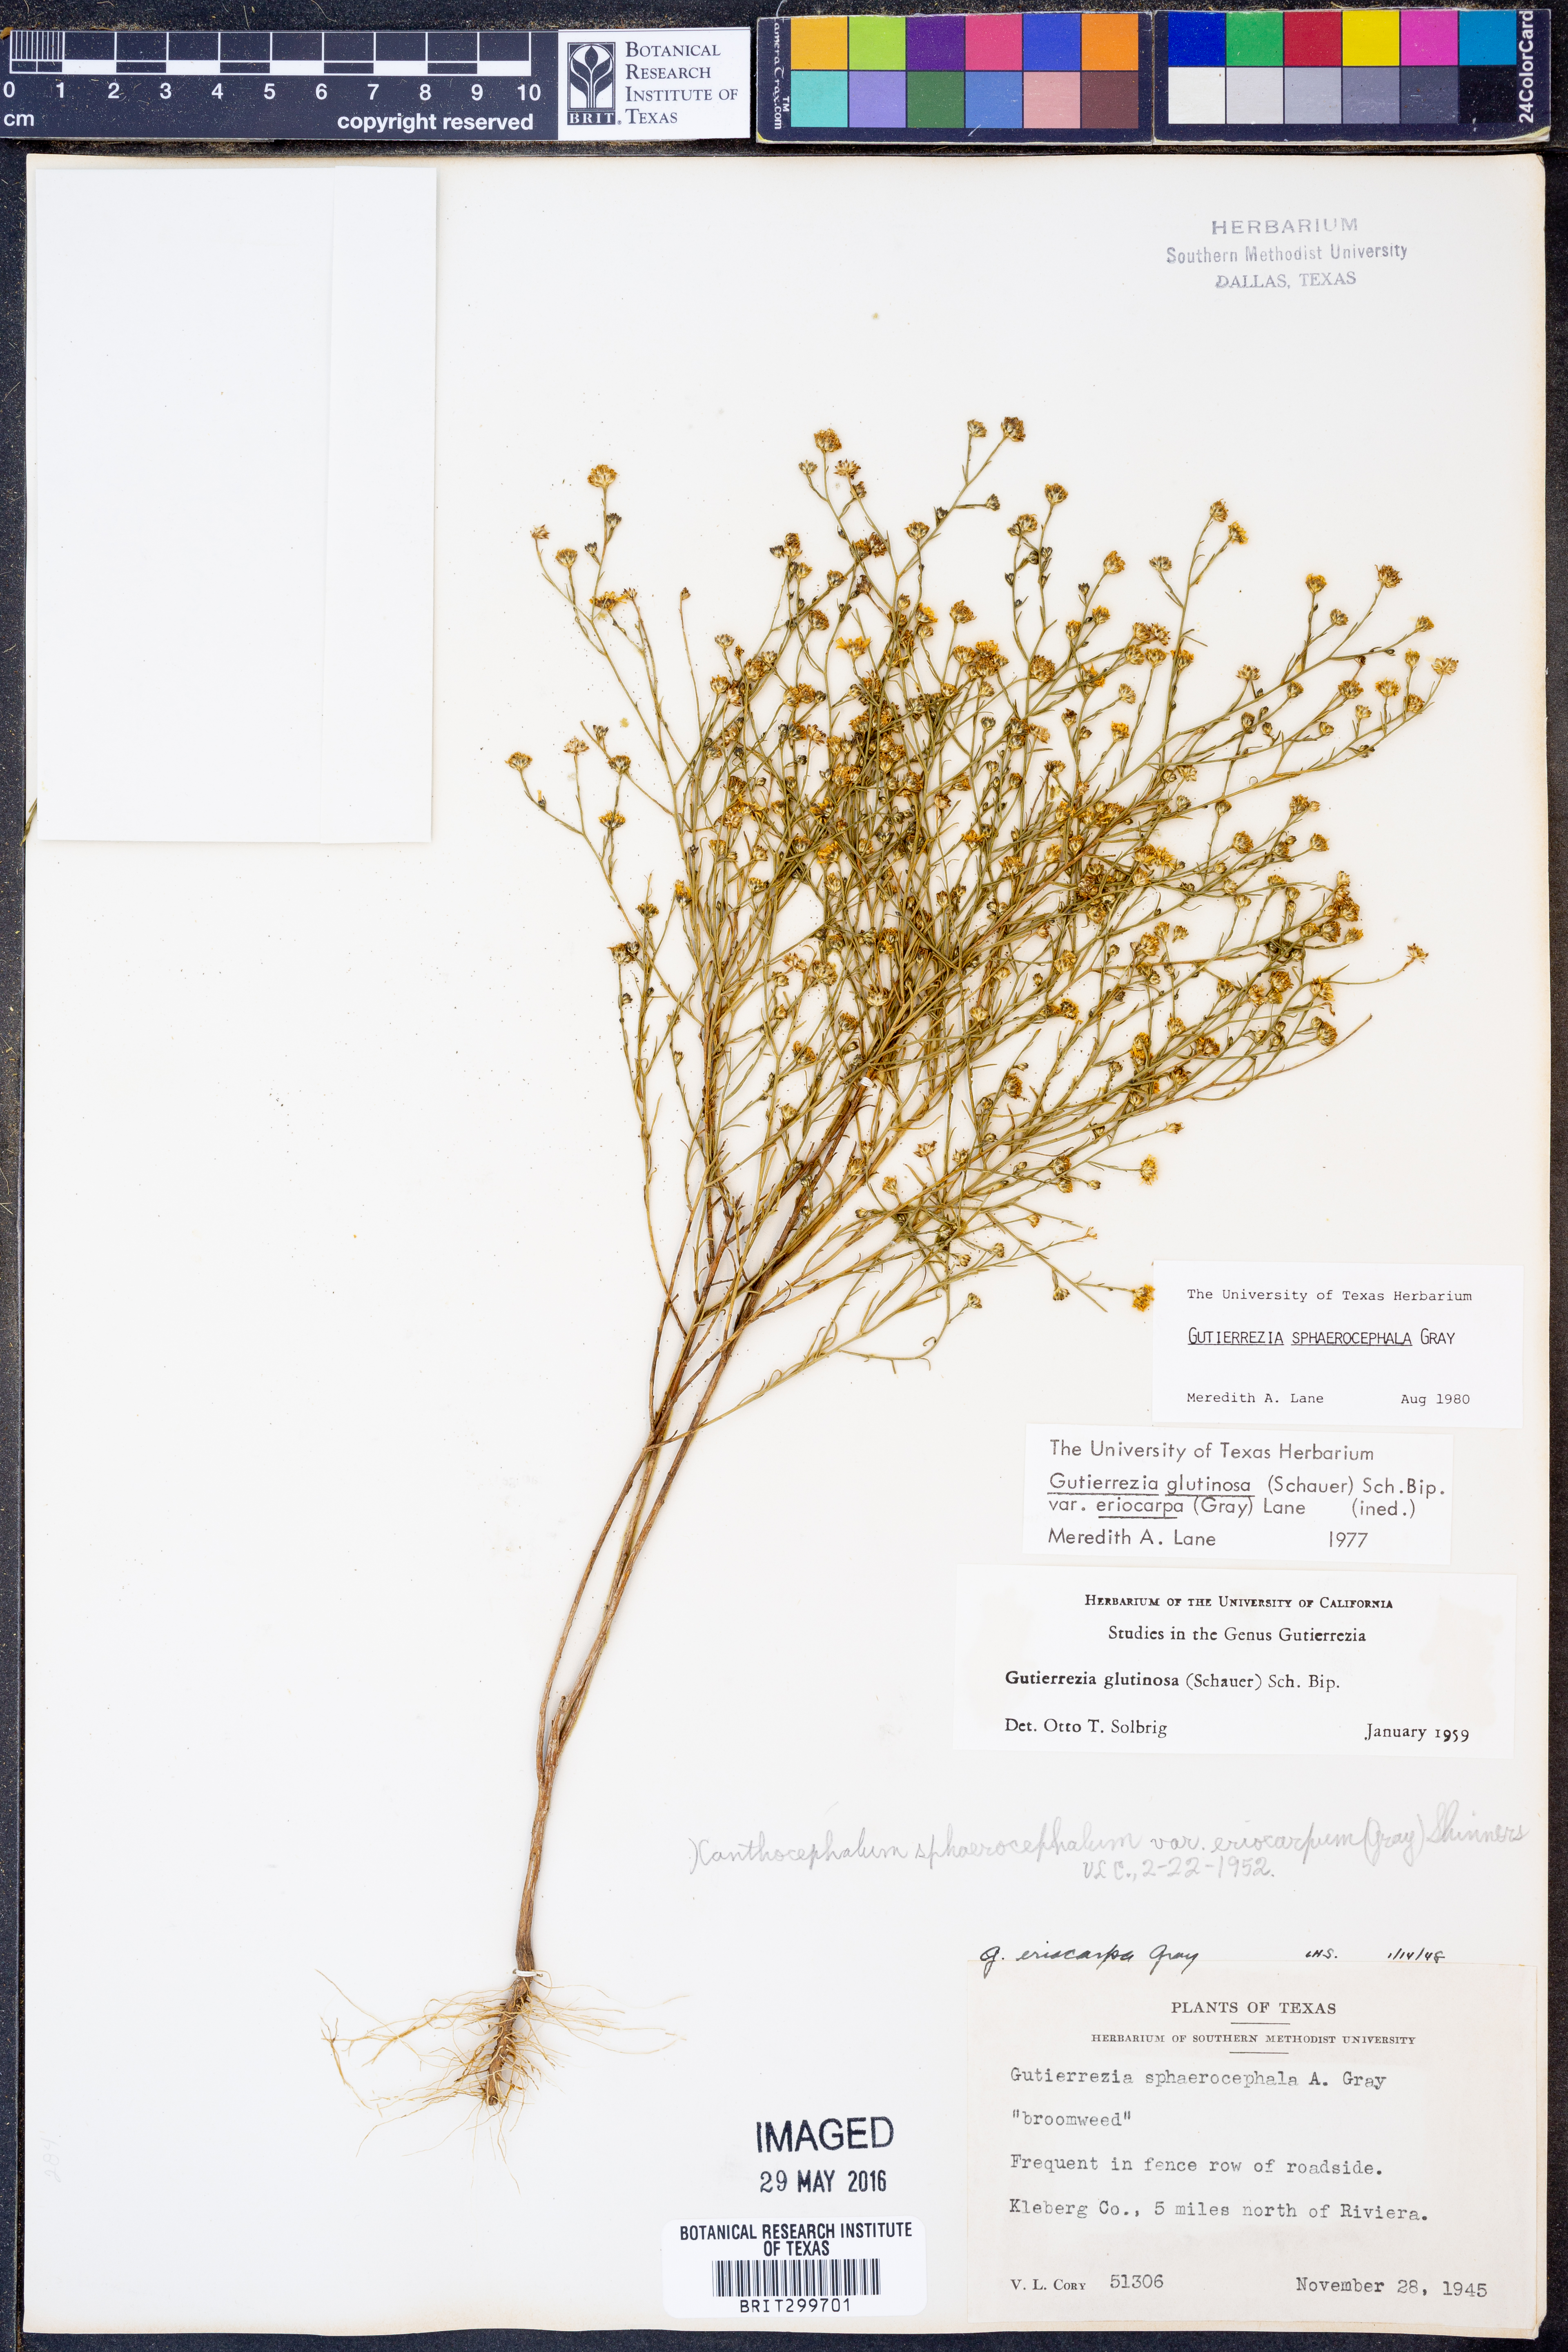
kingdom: Plantae
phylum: Tracheophyta
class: Magnoliopsida
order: Asterales
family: Asteraceae
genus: Gutierrezia
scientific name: Gutierrezia sphaerocephala
